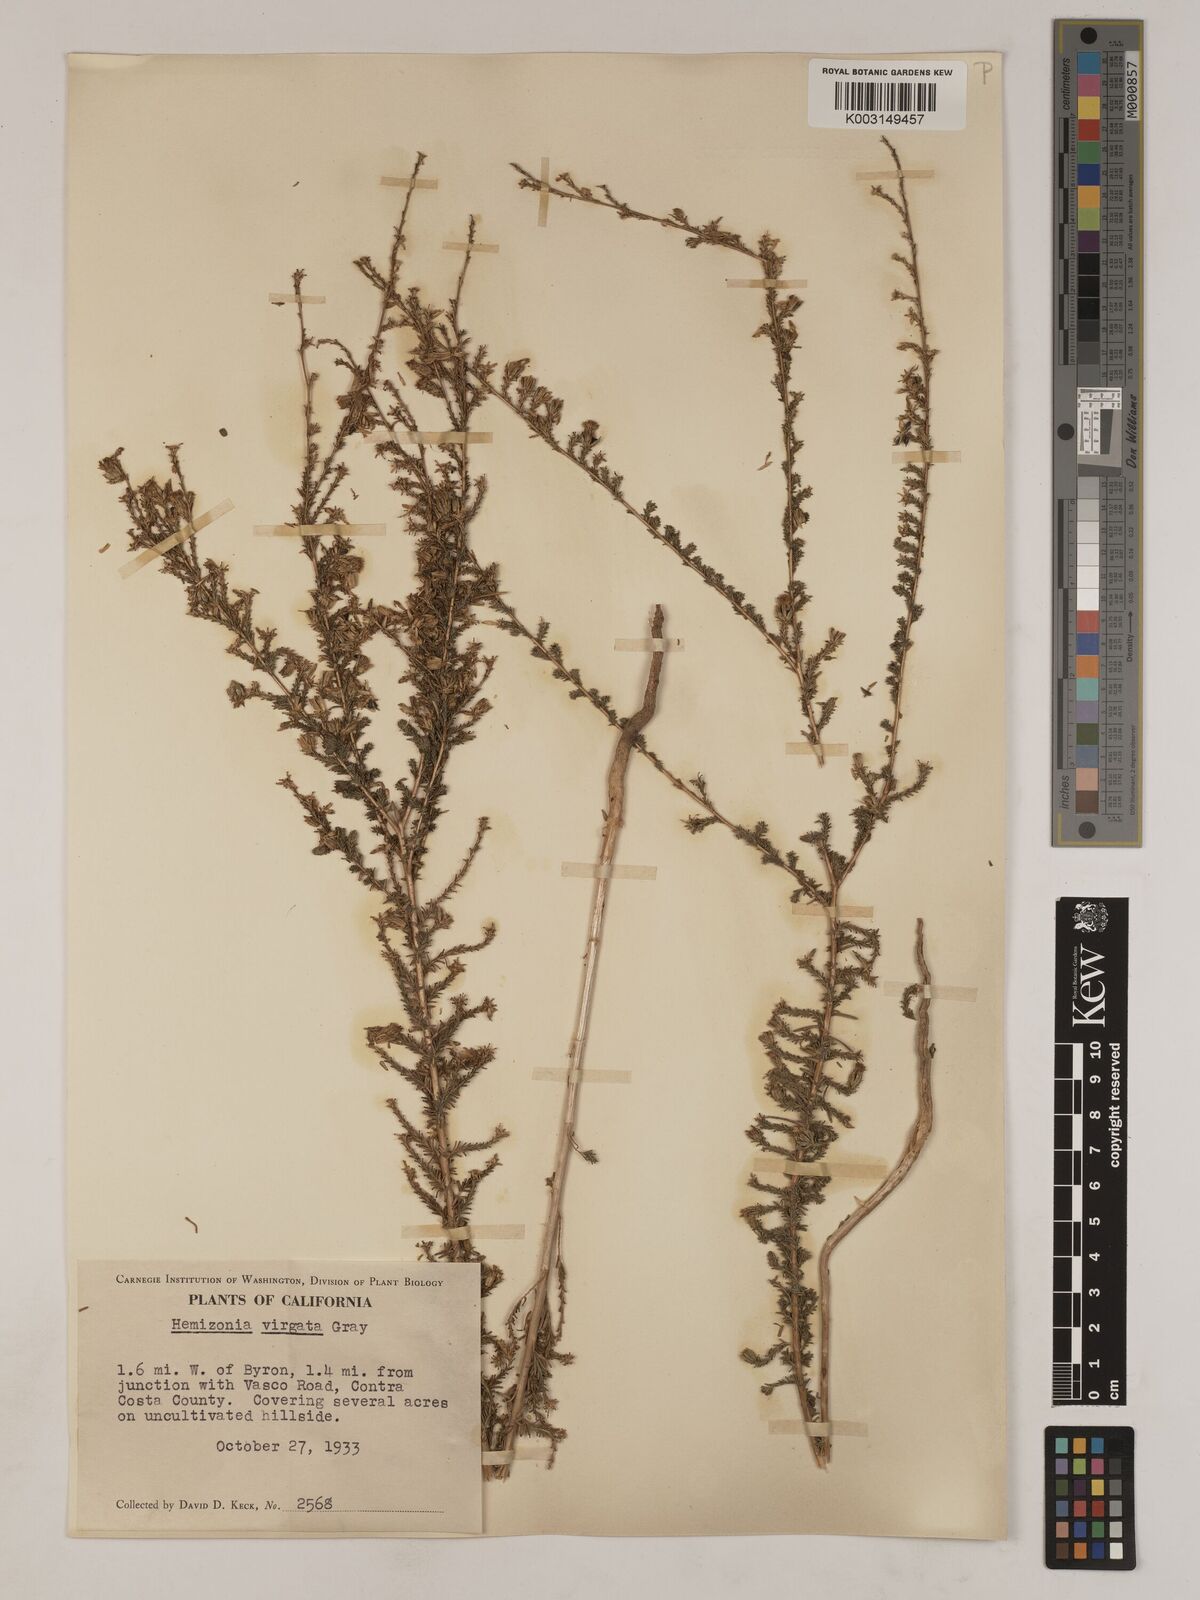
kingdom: Plantae
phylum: Tracheophyta
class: Magnoliopsida
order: Asterales
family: Asteraceae
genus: Holocarpha
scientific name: Holocarpha virgata
